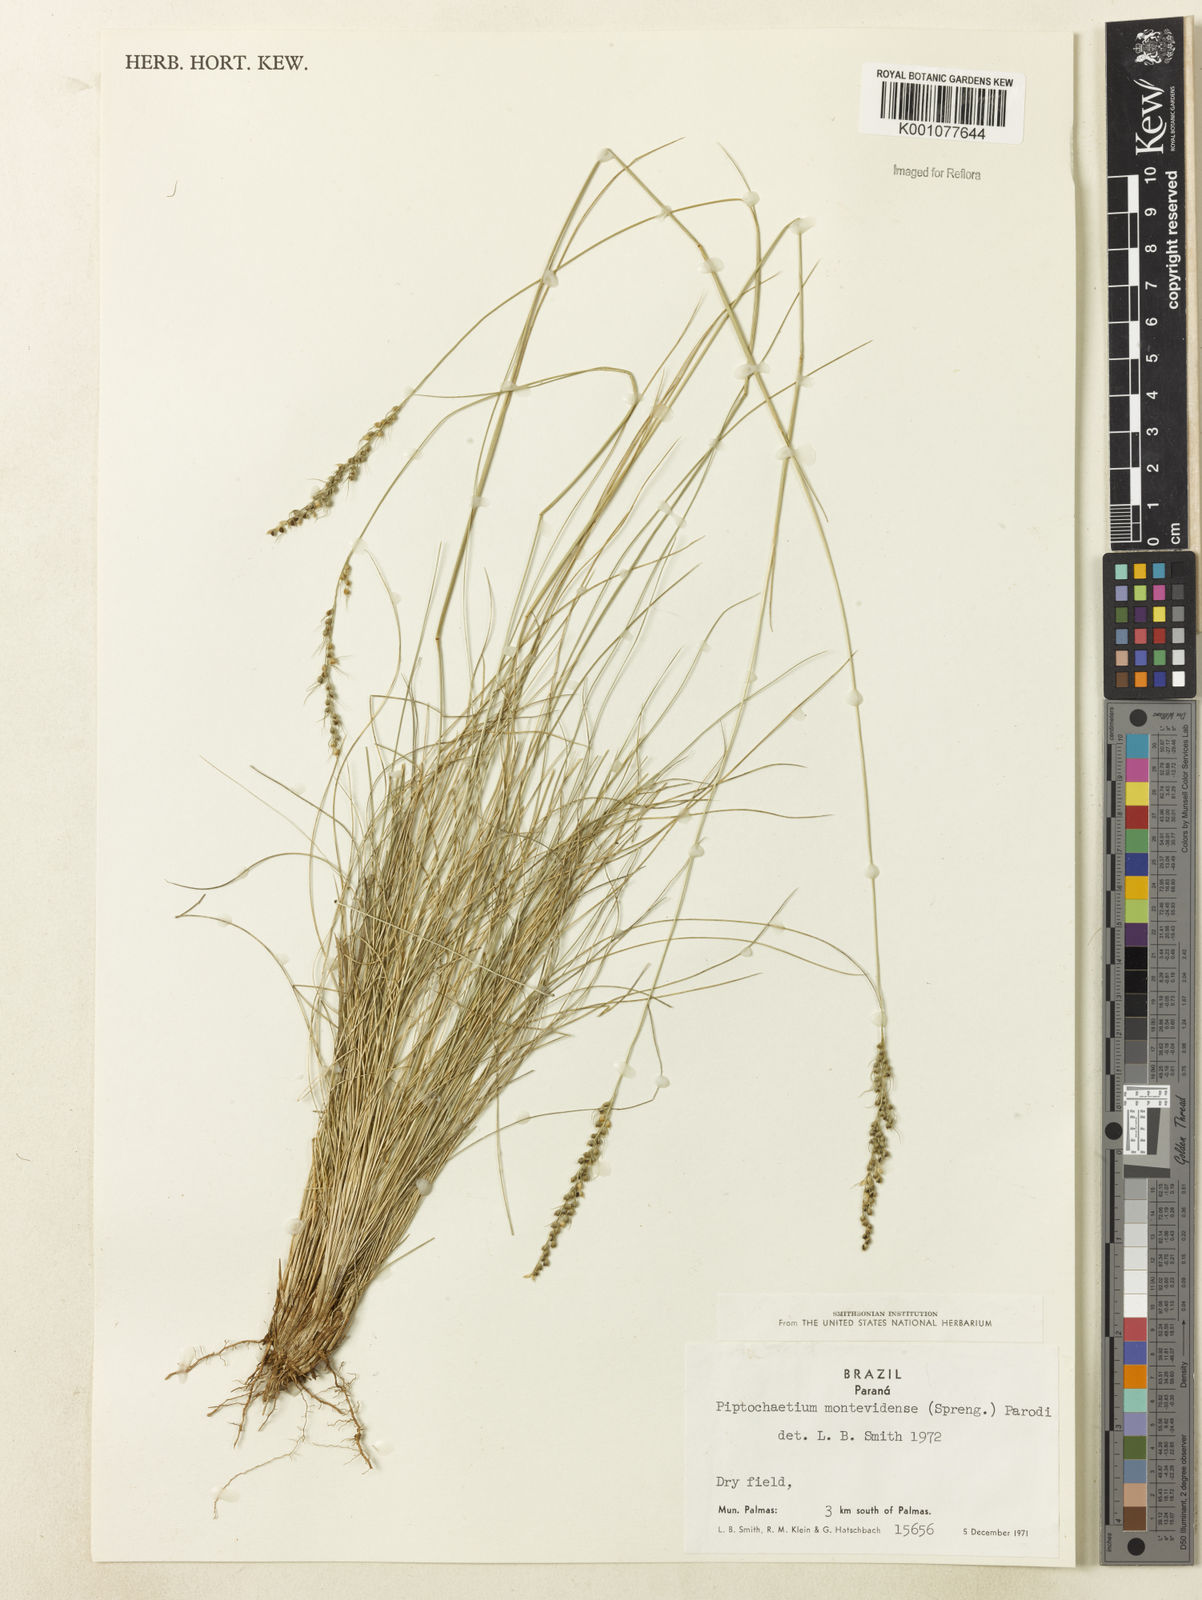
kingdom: Plantae
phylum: Tracheophyta
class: Liliopsida
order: Poales
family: Poaceae
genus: Piptochaetium
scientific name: Piptochaetium montevidense
